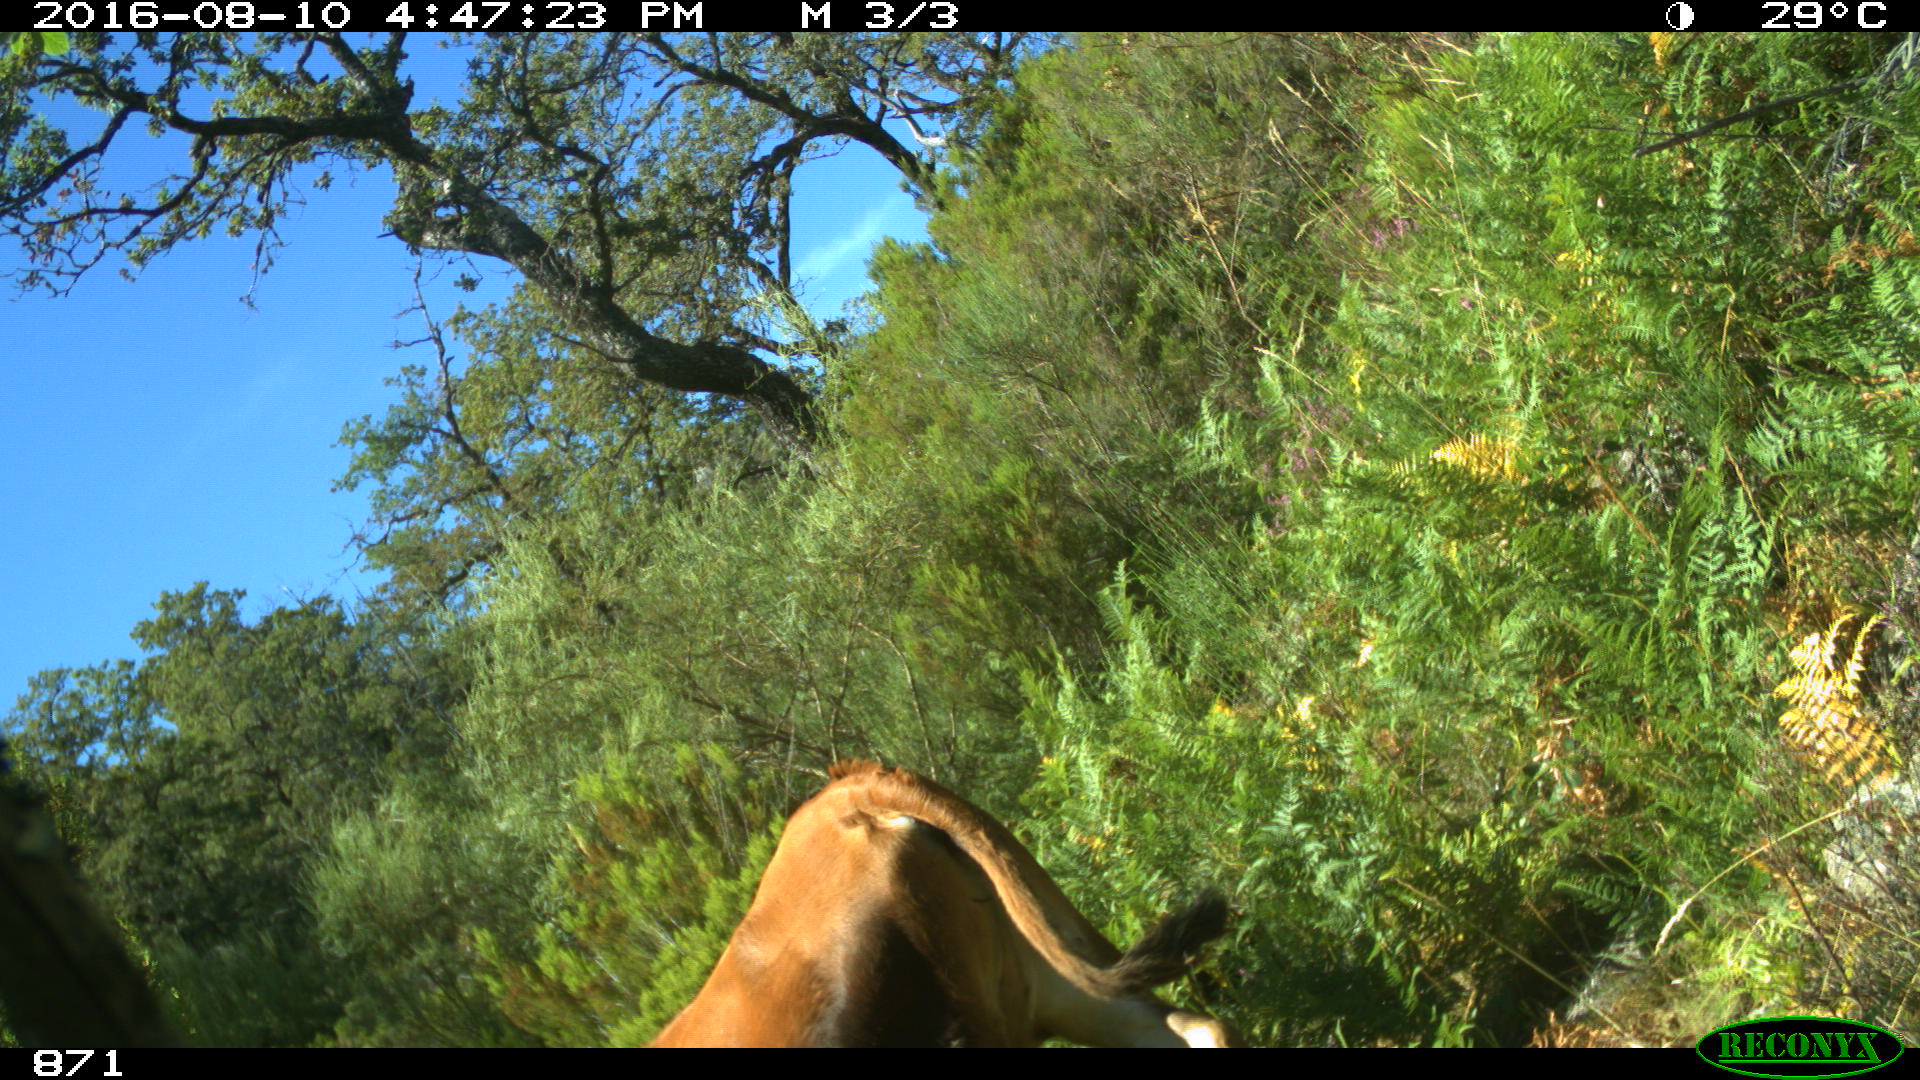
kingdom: Animalia
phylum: Chordata
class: Mammalia
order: Artiodactyla
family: Bovidae
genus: Bos
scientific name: Bos taurus
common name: Domesticated cattle
